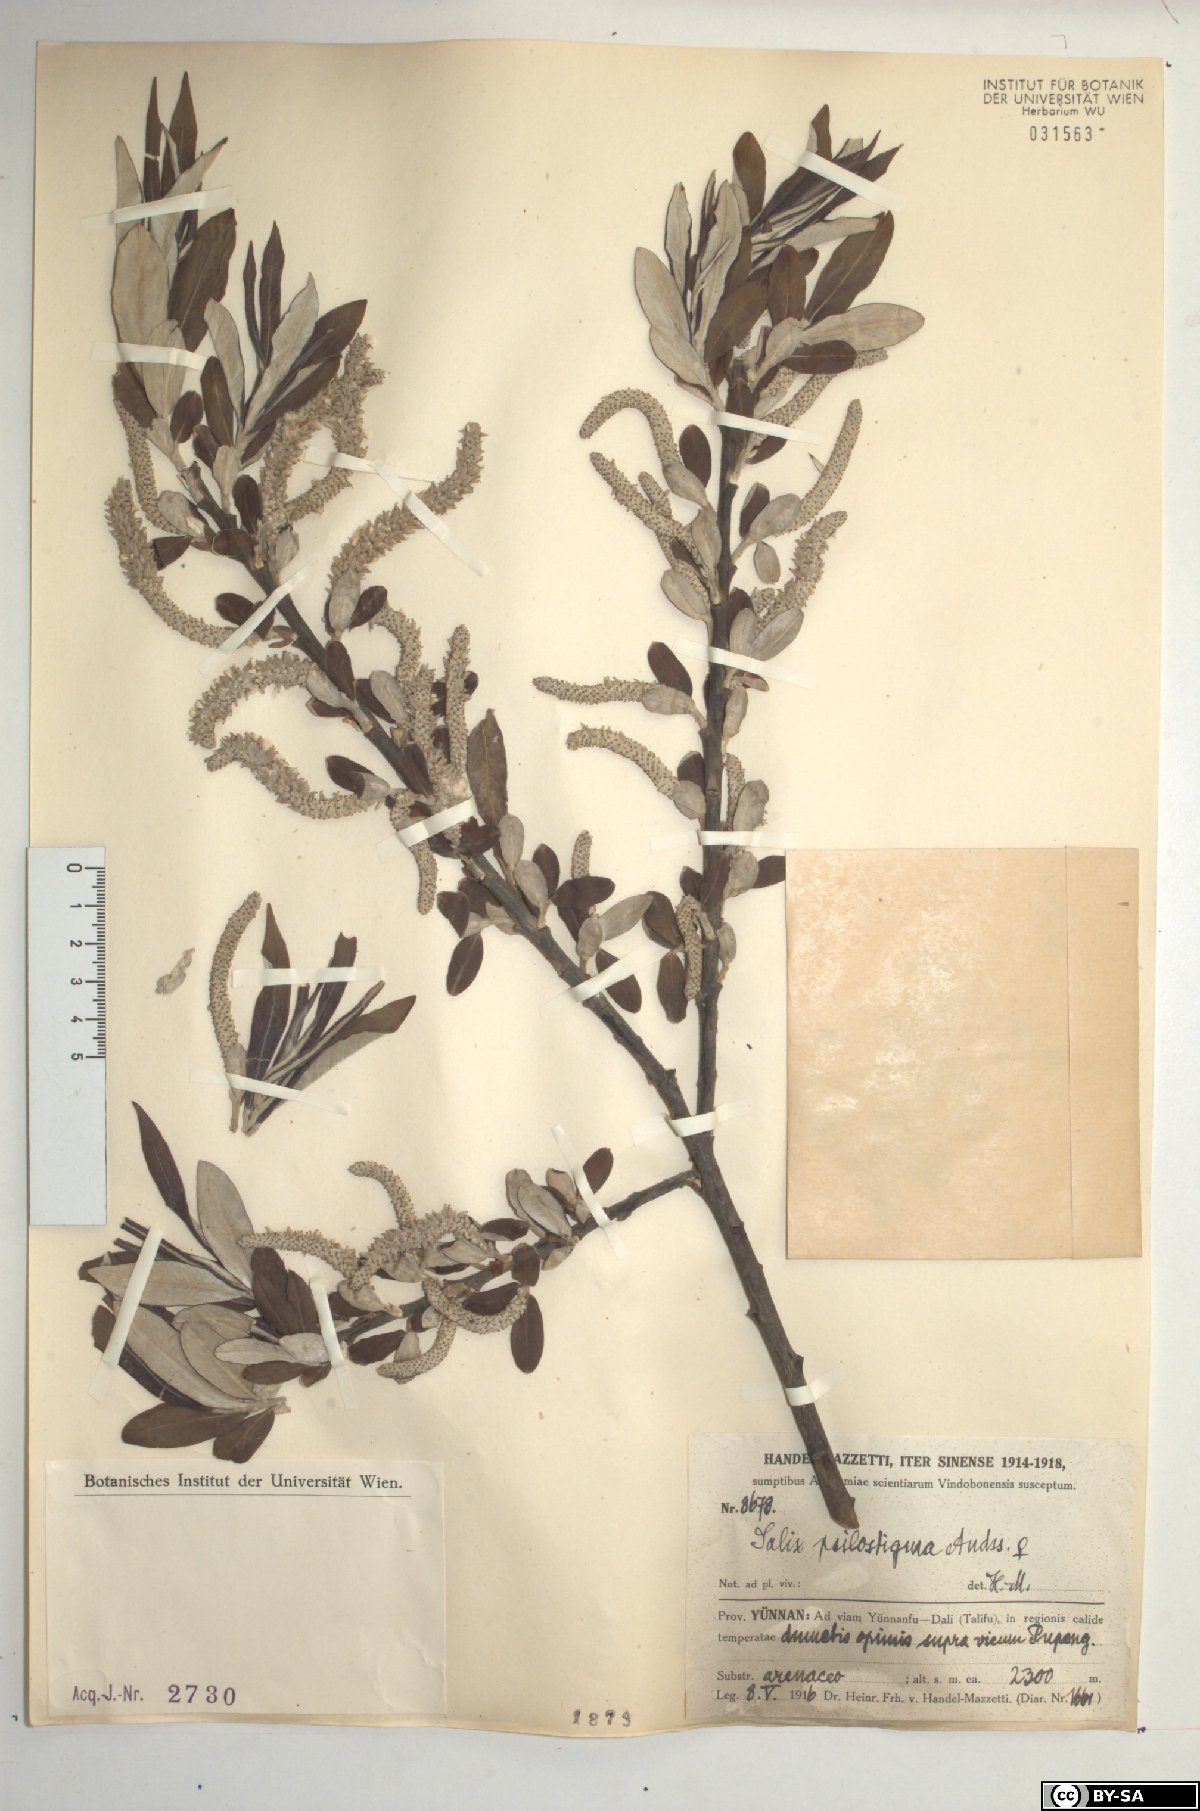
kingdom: Plantae
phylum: Tracheophyta
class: Magnoliopsida
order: Malpighiales
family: Salicaceae
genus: Salix
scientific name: Salix psilostigma
